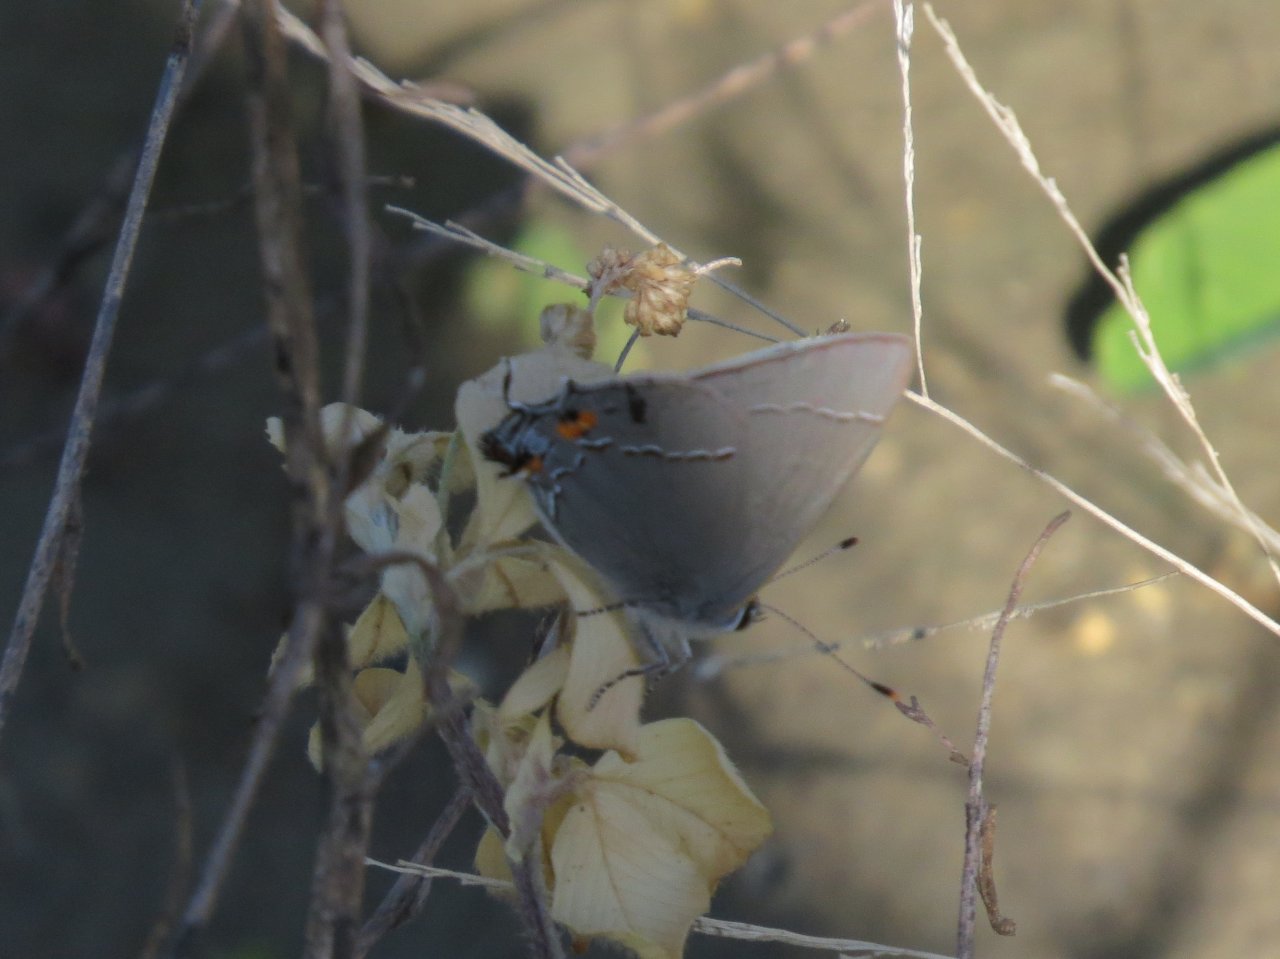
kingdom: Animalia
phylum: Arthropoda
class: Insecta
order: Lepidoptera
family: Lycaenidae
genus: Strymon
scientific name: Strymon melinus
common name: Gray Hairstreak
